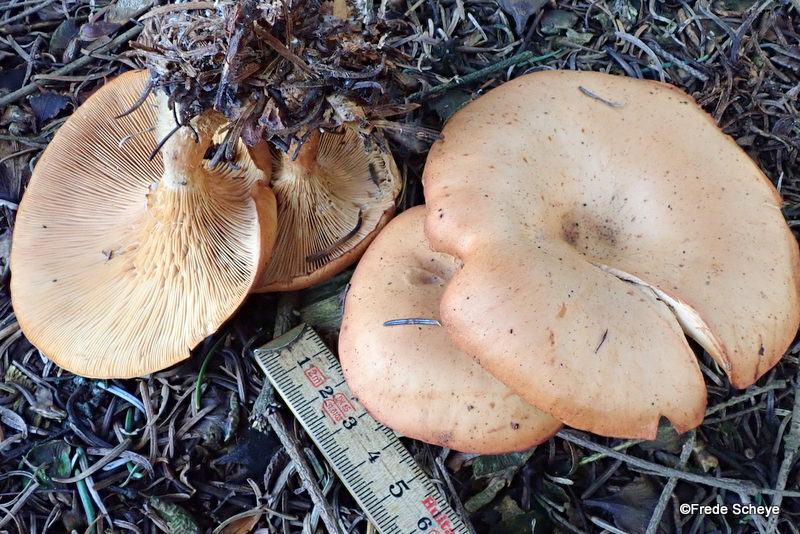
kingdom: Fungi
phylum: Basidiomycota
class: Agaricomycetes
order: Agaricales
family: Tricholomataceae
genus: Paralepista
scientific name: Paralepista flaccida
